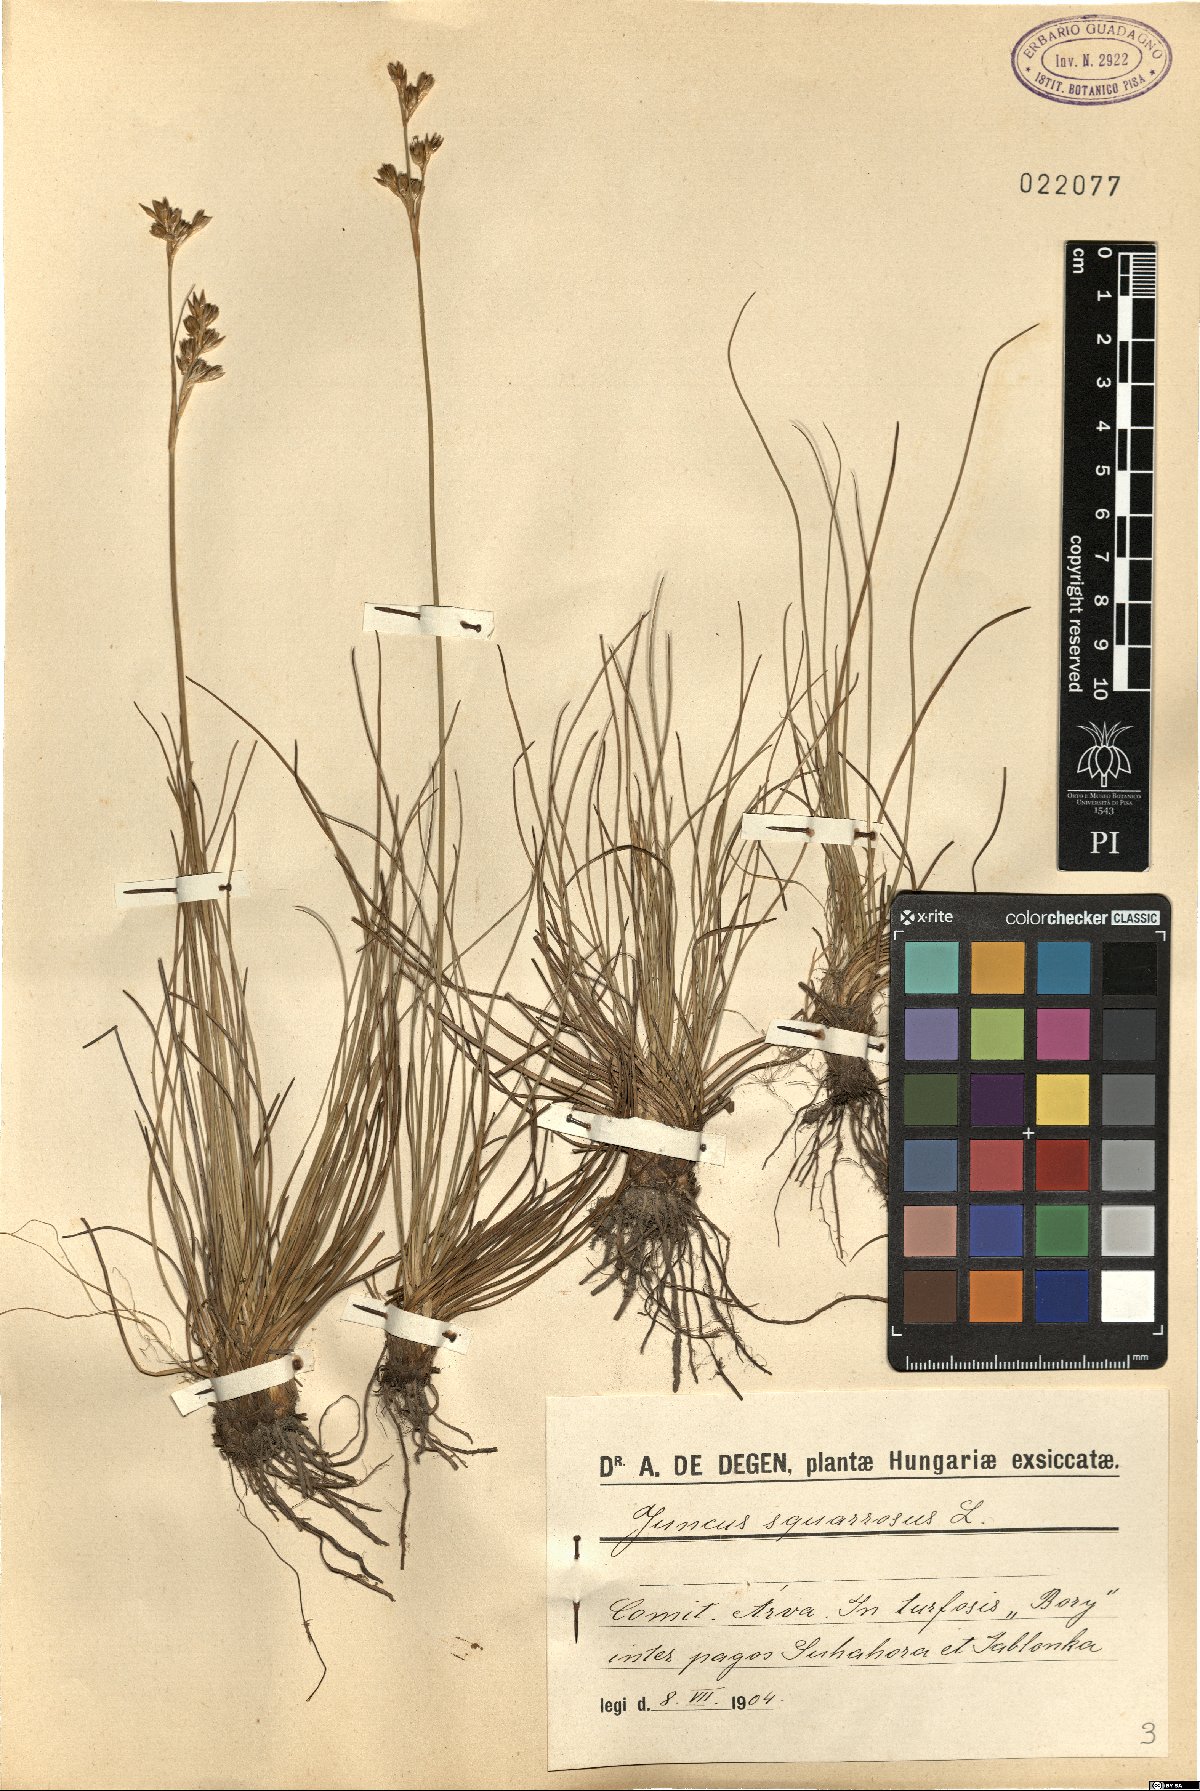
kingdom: Plantae
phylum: Tracheophyta
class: Liliopsida
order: Poales
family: Juncaceae
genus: Juncus
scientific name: Juncus squarrosus
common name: Heath rush
